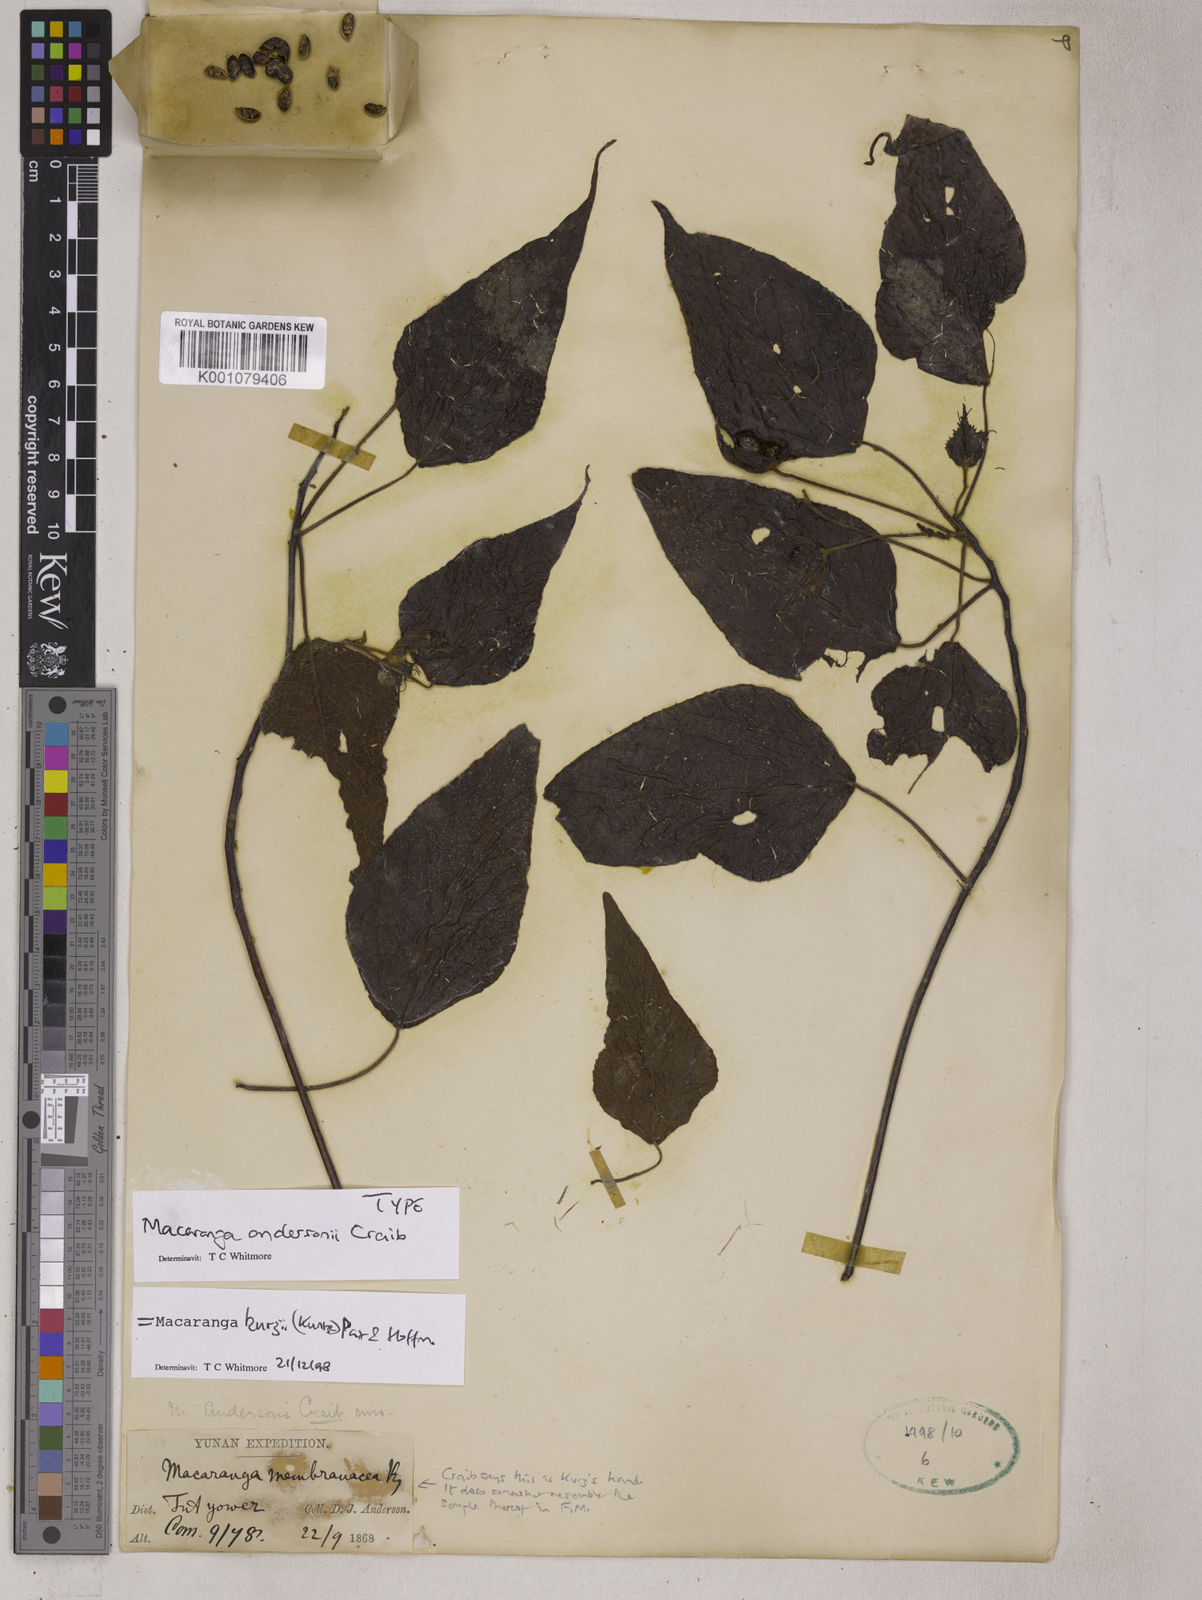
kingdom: Plantae
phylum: Tracheophyta
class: Magnoliopsida
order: Malpighiales
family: Euphorbiaceae
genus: Macaranga
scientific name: Macaranga kurzii
